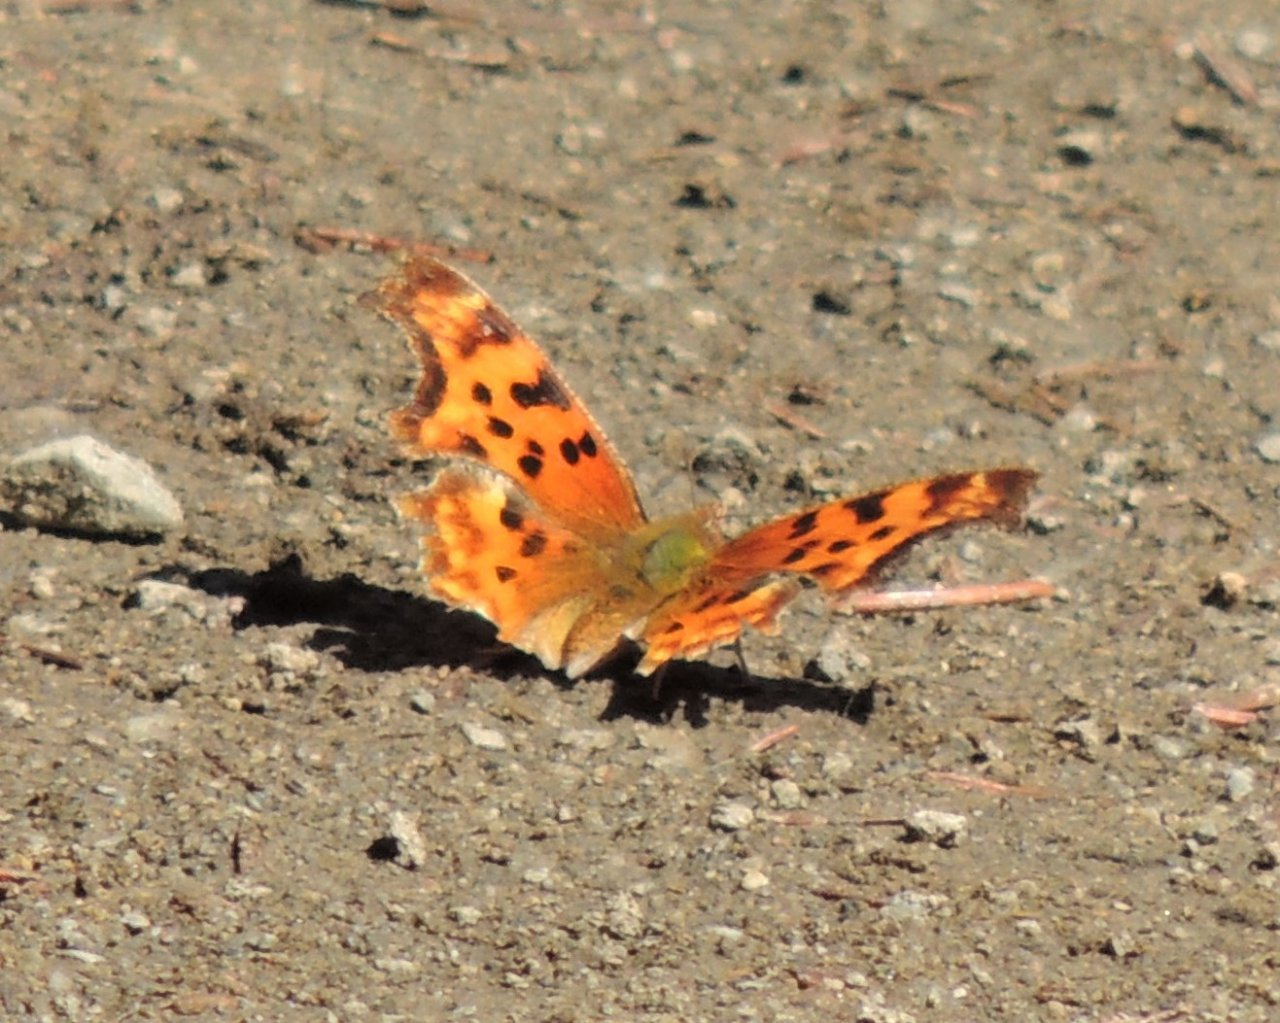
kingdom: Animalia
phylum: Arthropoda
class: Insecta
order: Lepidoptera
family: Nymphalidae
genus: Polygonia
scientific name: Polygonia satyrus
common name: Satyr Comma
